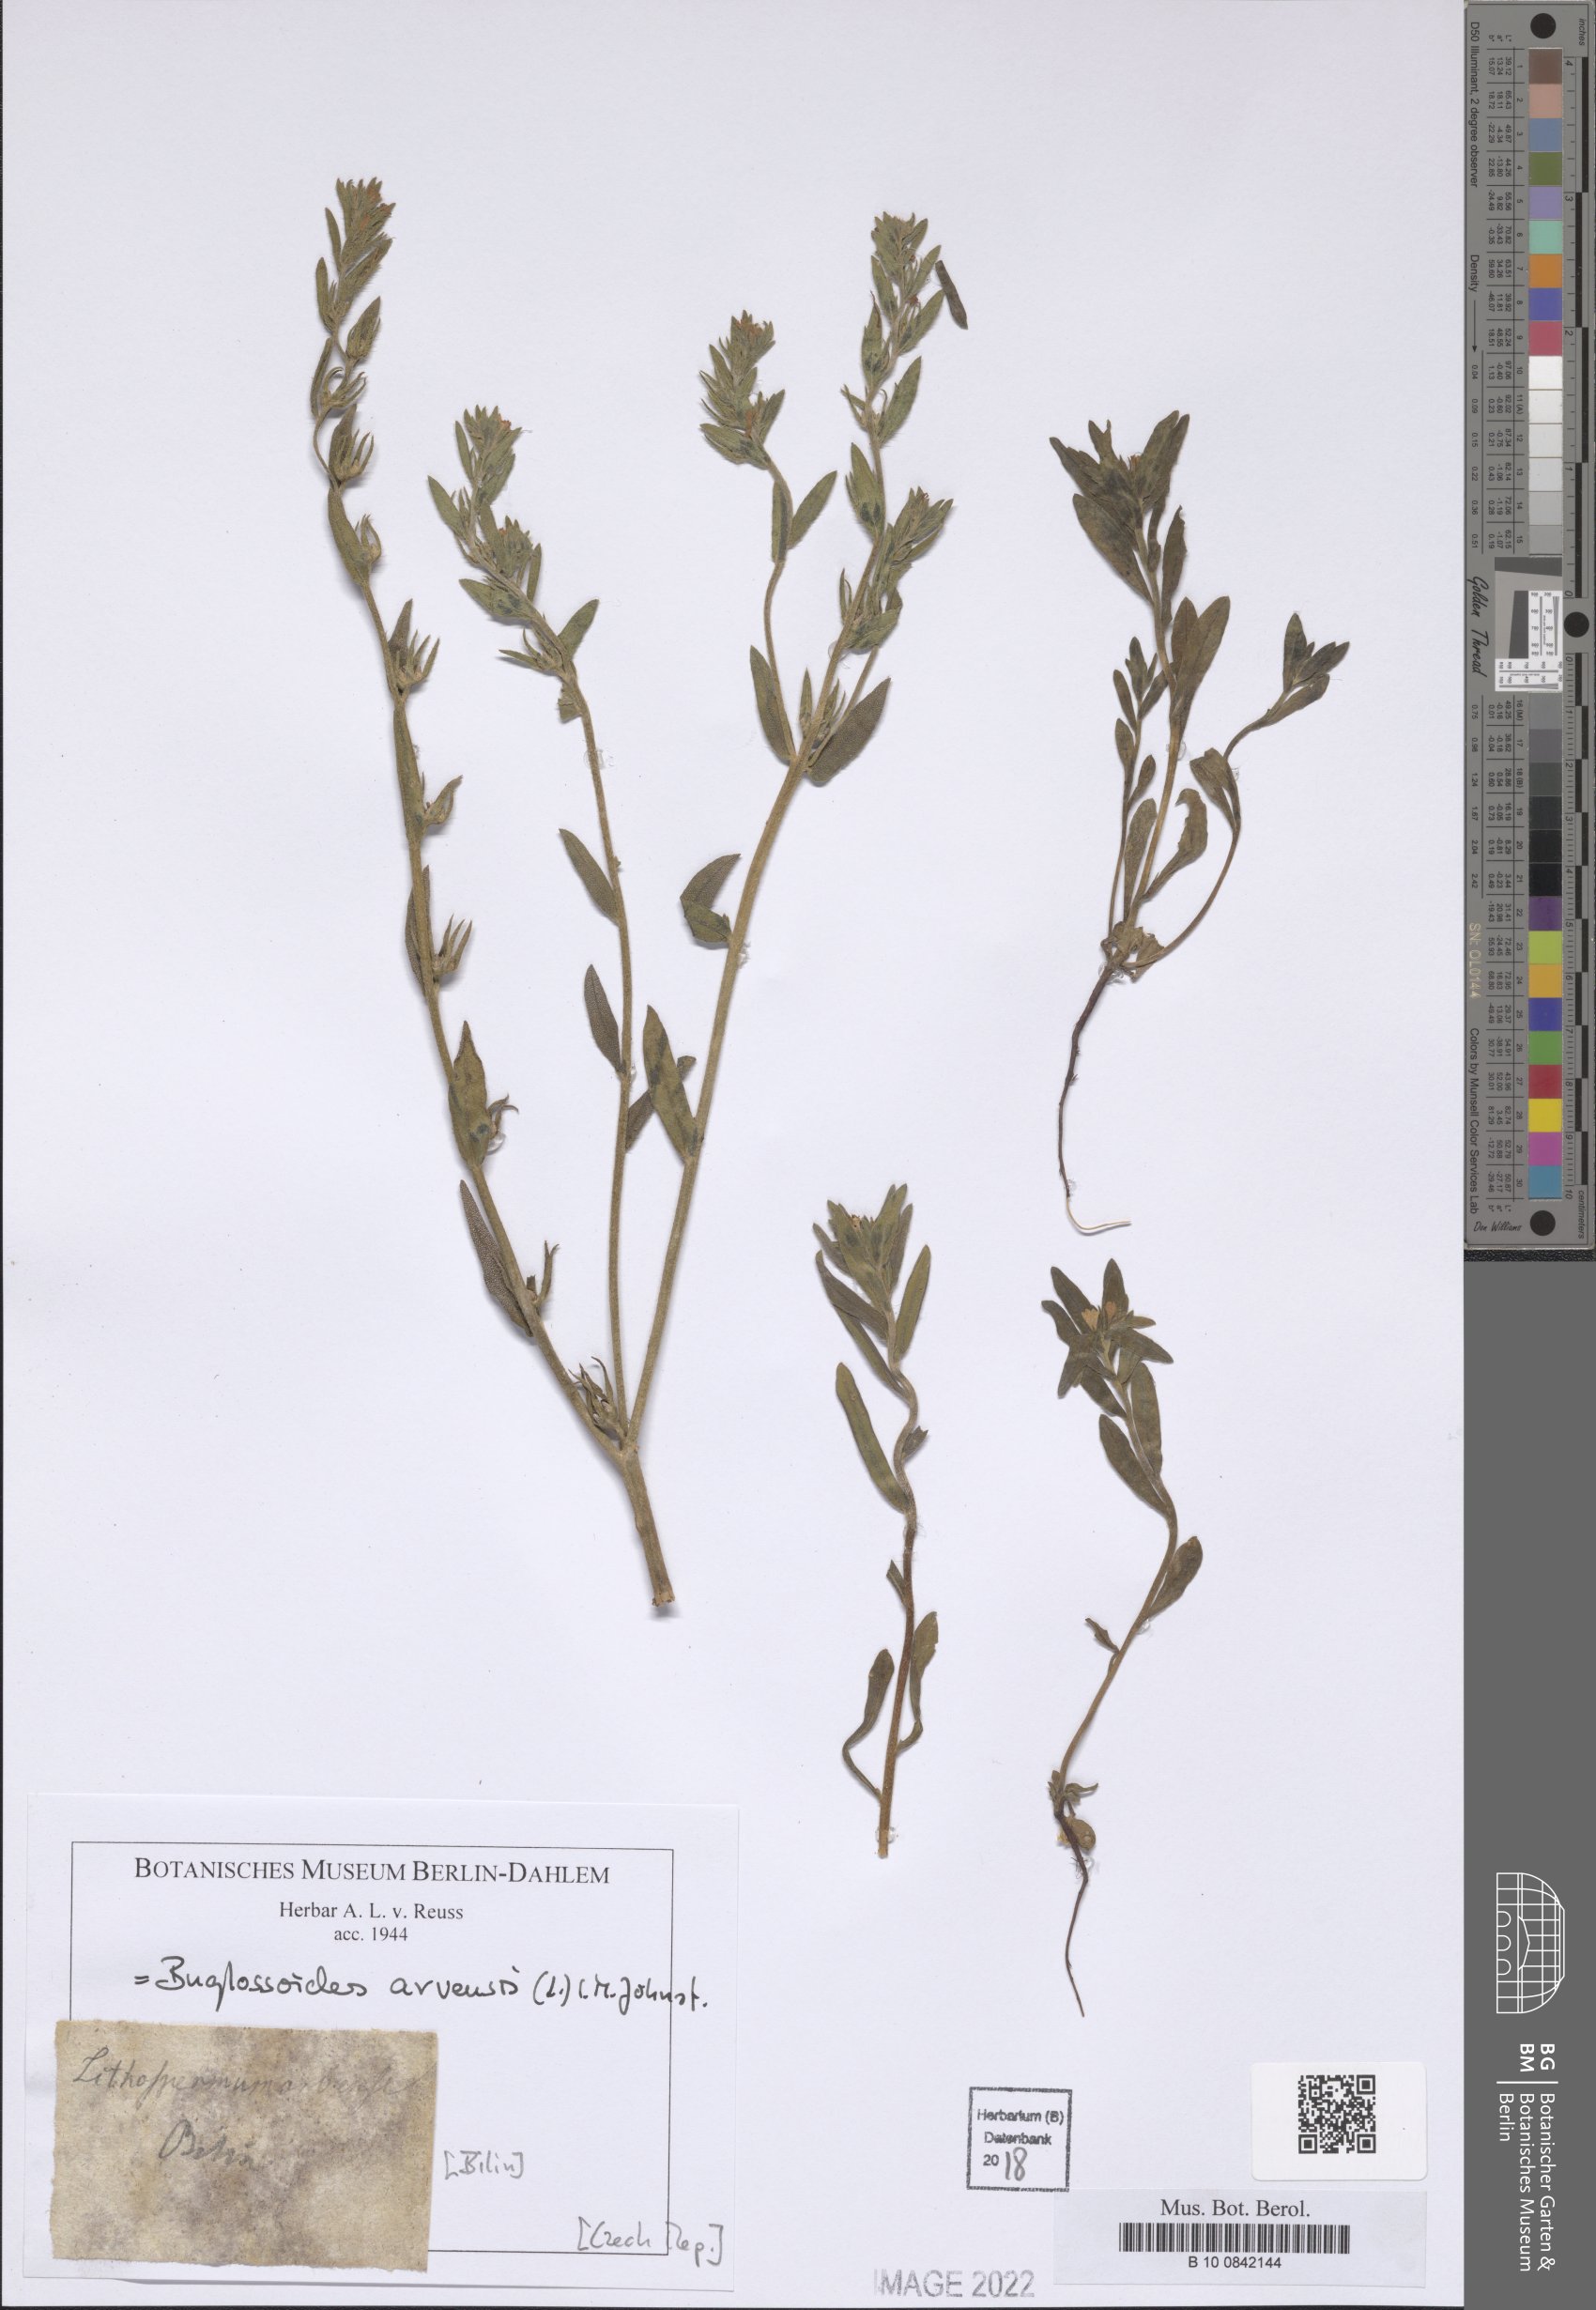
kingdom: Plantae
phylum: Tracheophyta
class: Magnoliopsida
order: Boraginales
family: Boraginaceae
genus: Buglossoides
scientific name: Buglossoides arvensis
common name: Corn gromwell
